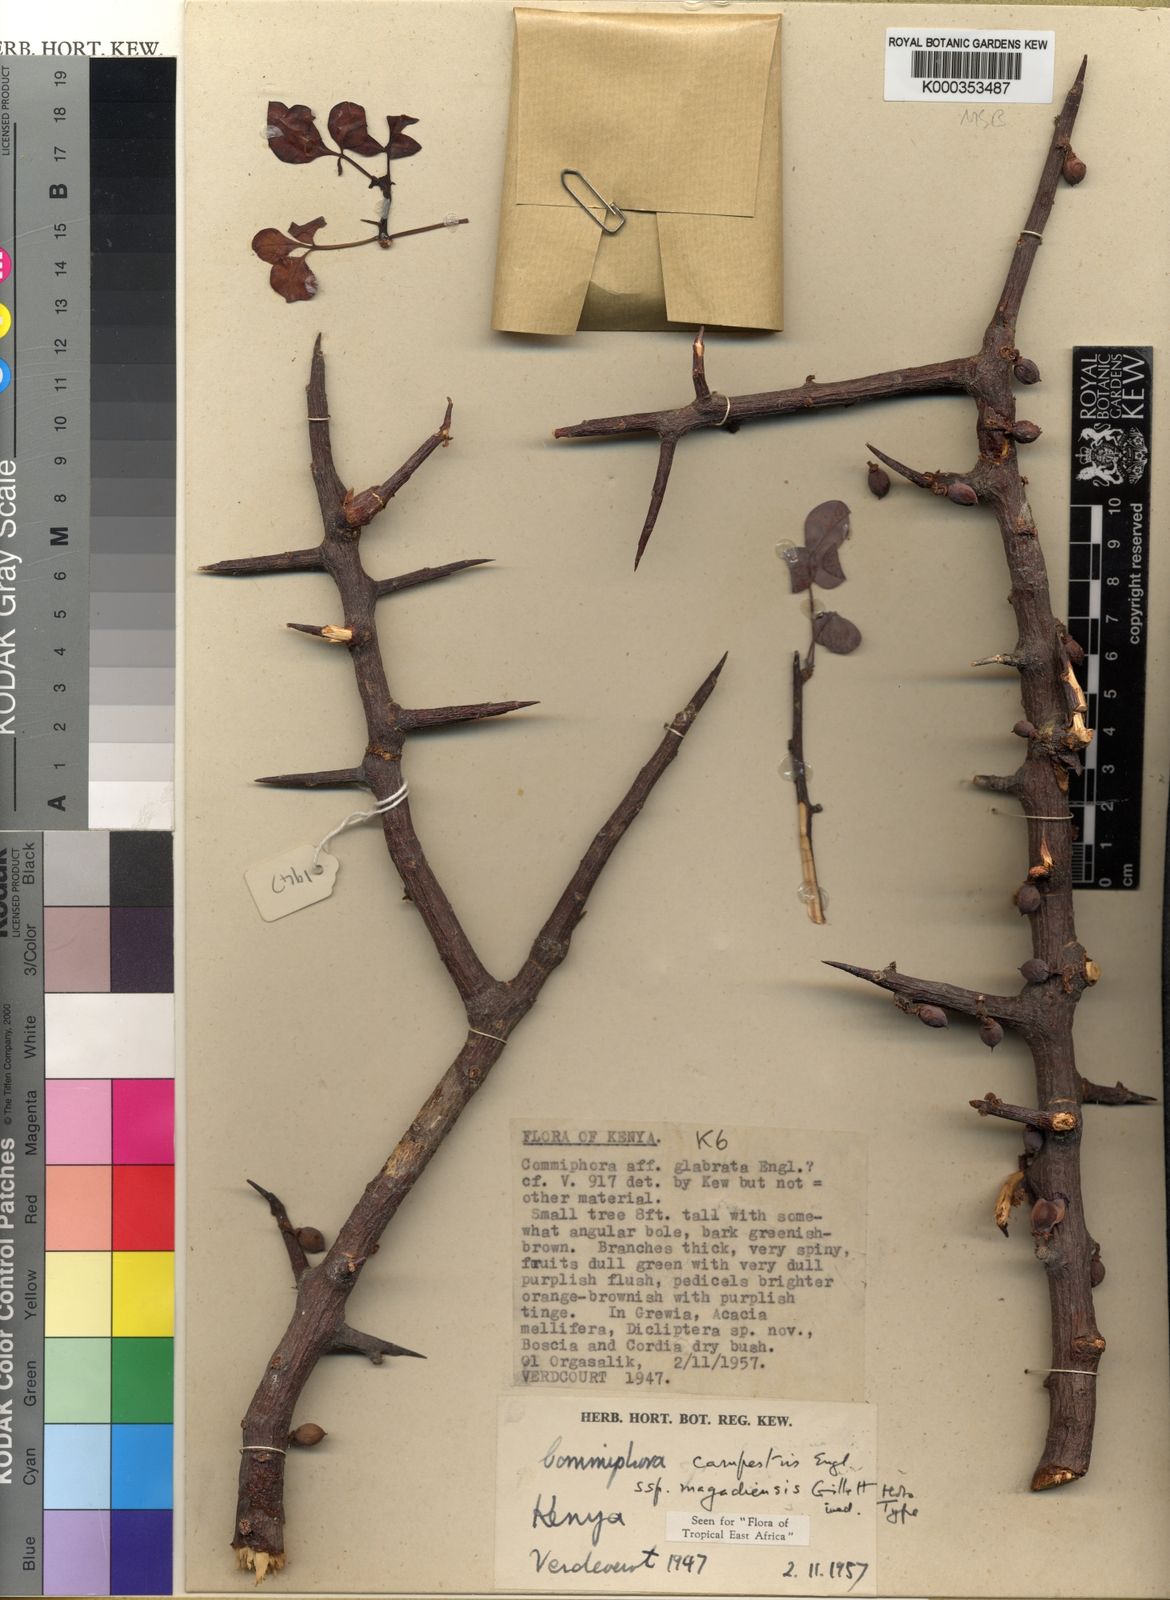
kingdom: Plantae
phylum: Tracheophyta
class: Magnoliopsida
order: Sapindales
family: Burseraceae
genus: Commiphora
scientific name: Commiphora campestris
